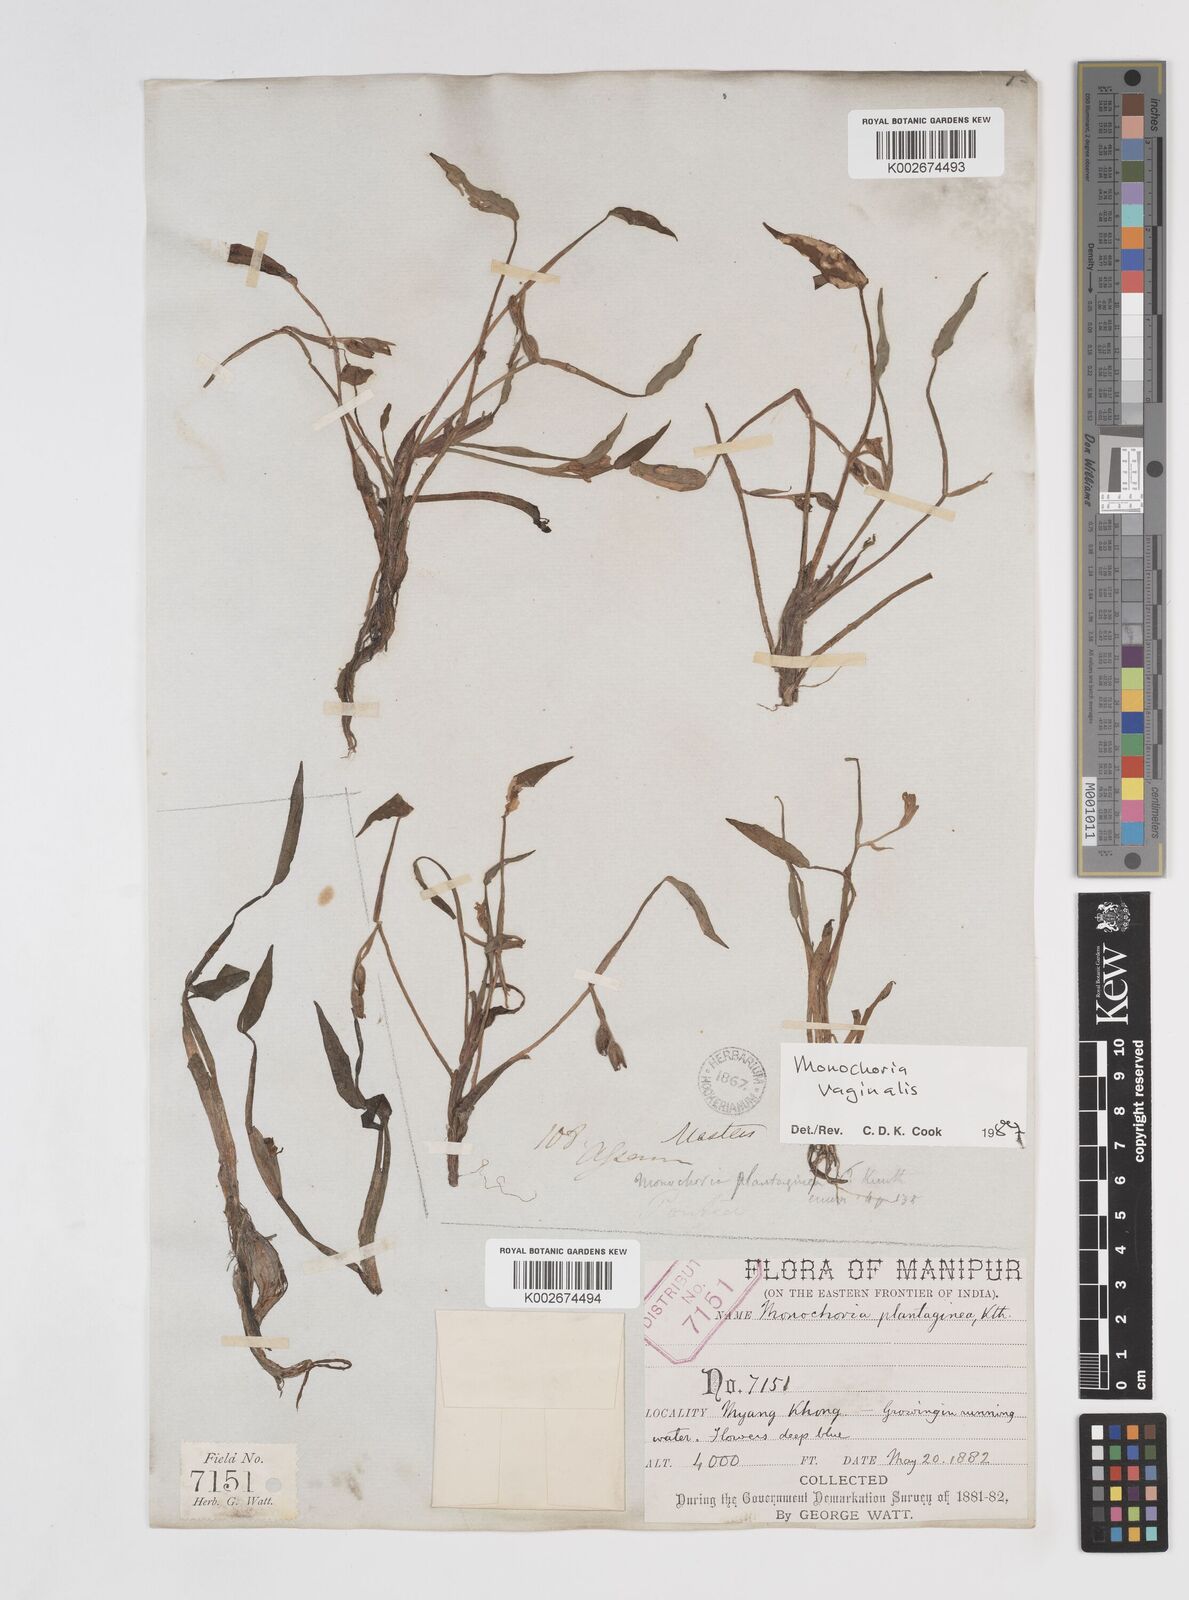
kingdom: Plantae
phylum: Tracheophyta
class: Liliopsida
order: Commelinales
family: Pontederiaceae
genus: Pontederia
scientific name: Pontederia vaginalis
